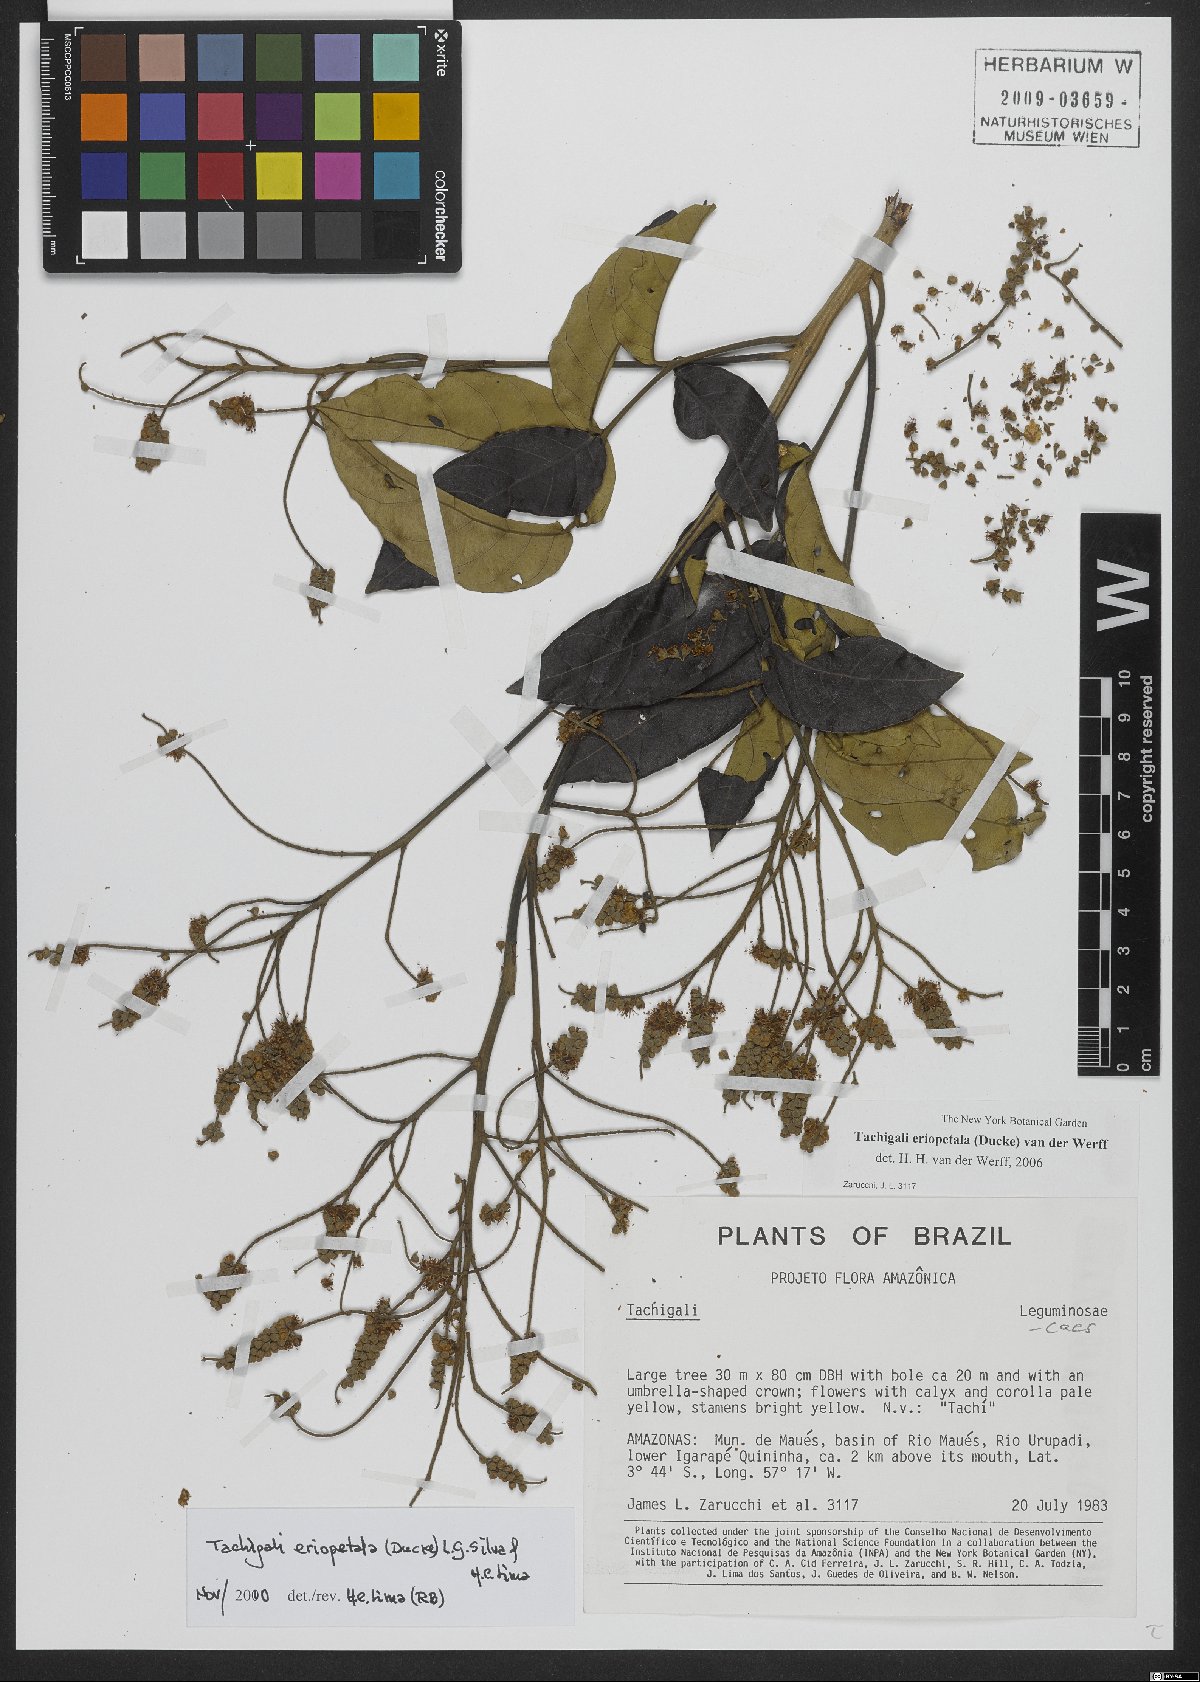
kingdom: Plantae
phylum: Tracheophyta
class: Magnoliopsida
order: Fabales
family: Fabaceae
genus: Tachigali
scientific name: Tachigali eriopetala
